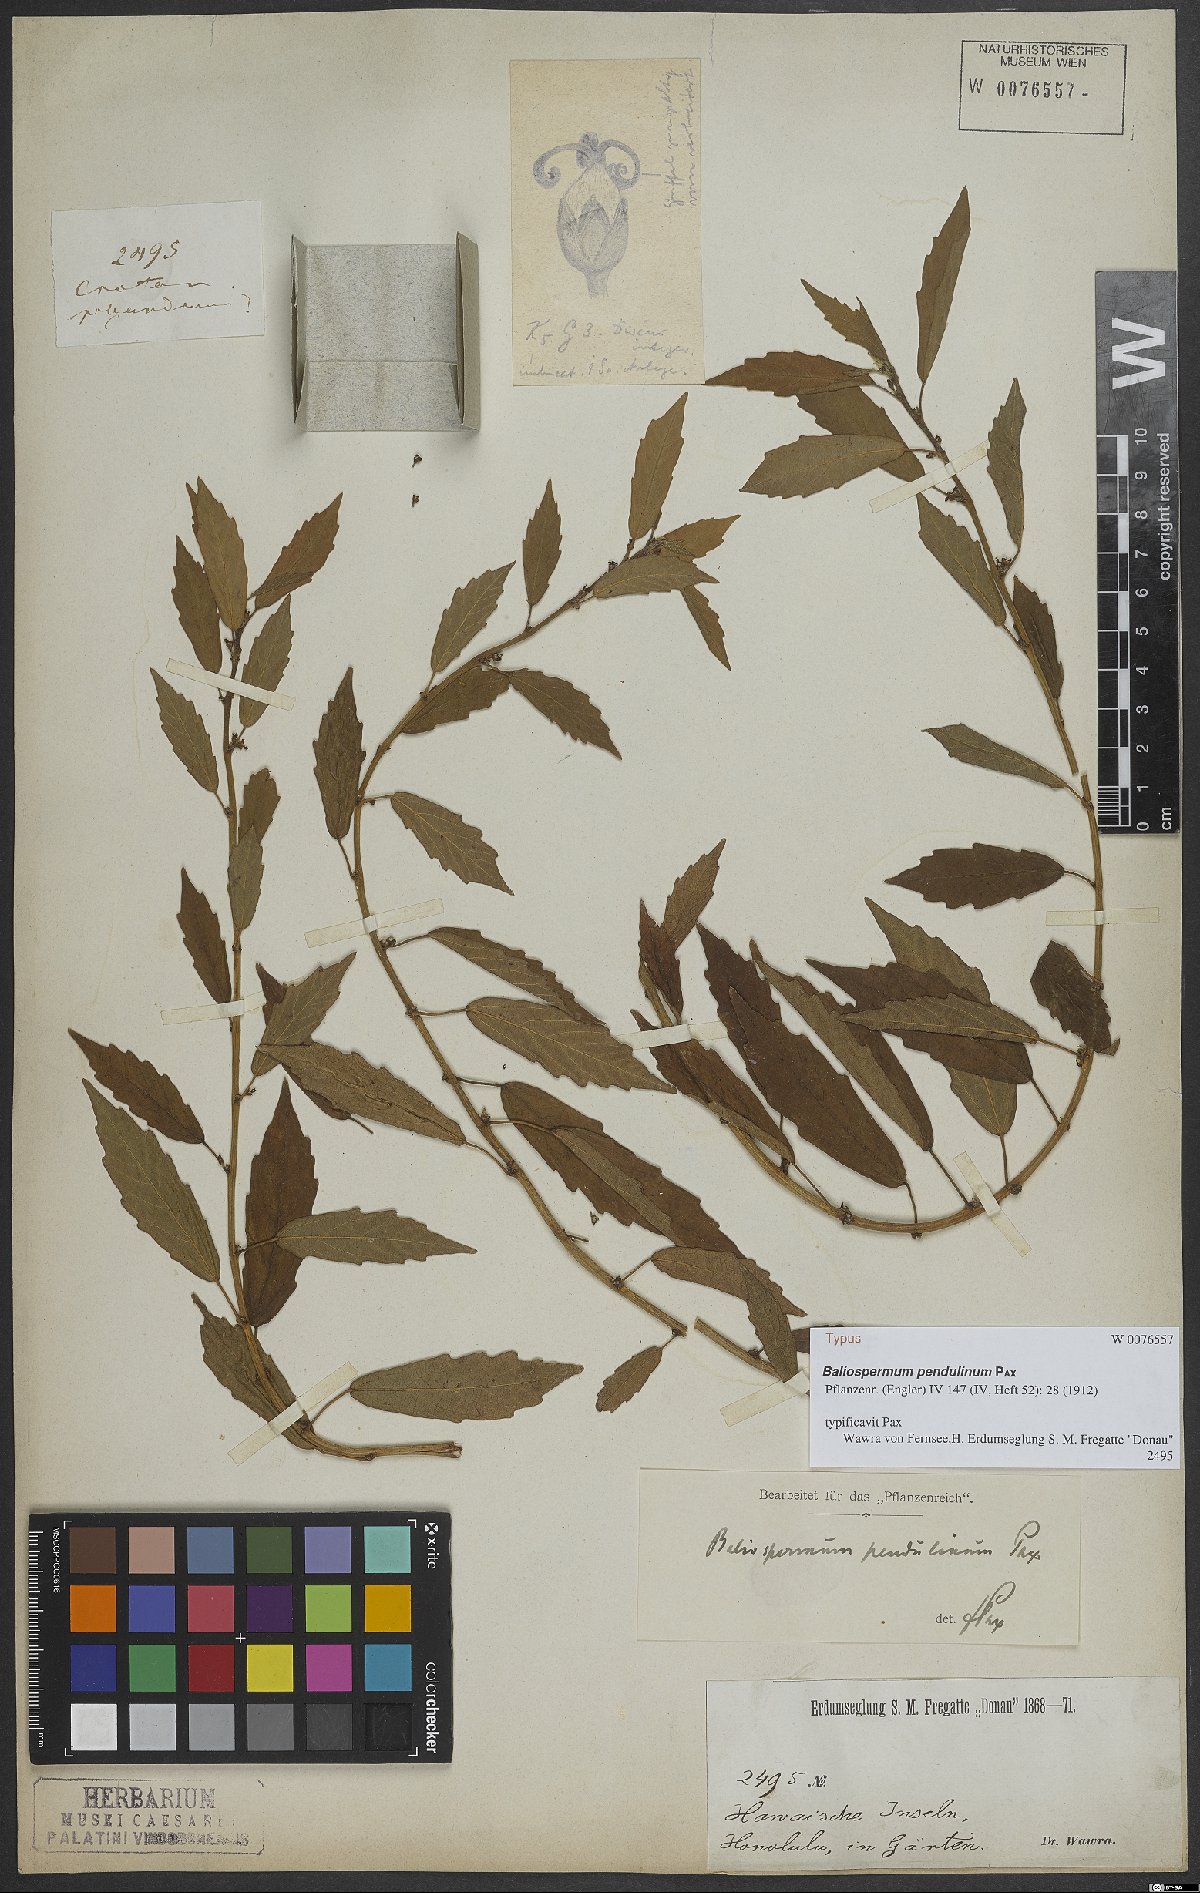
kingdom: Plantae
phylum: Tracheophyta
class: Magnoliopsida
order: Malpighiales
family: Euphorbiaceae
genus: Baliospermum
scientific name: Baliospermum solanifolium
